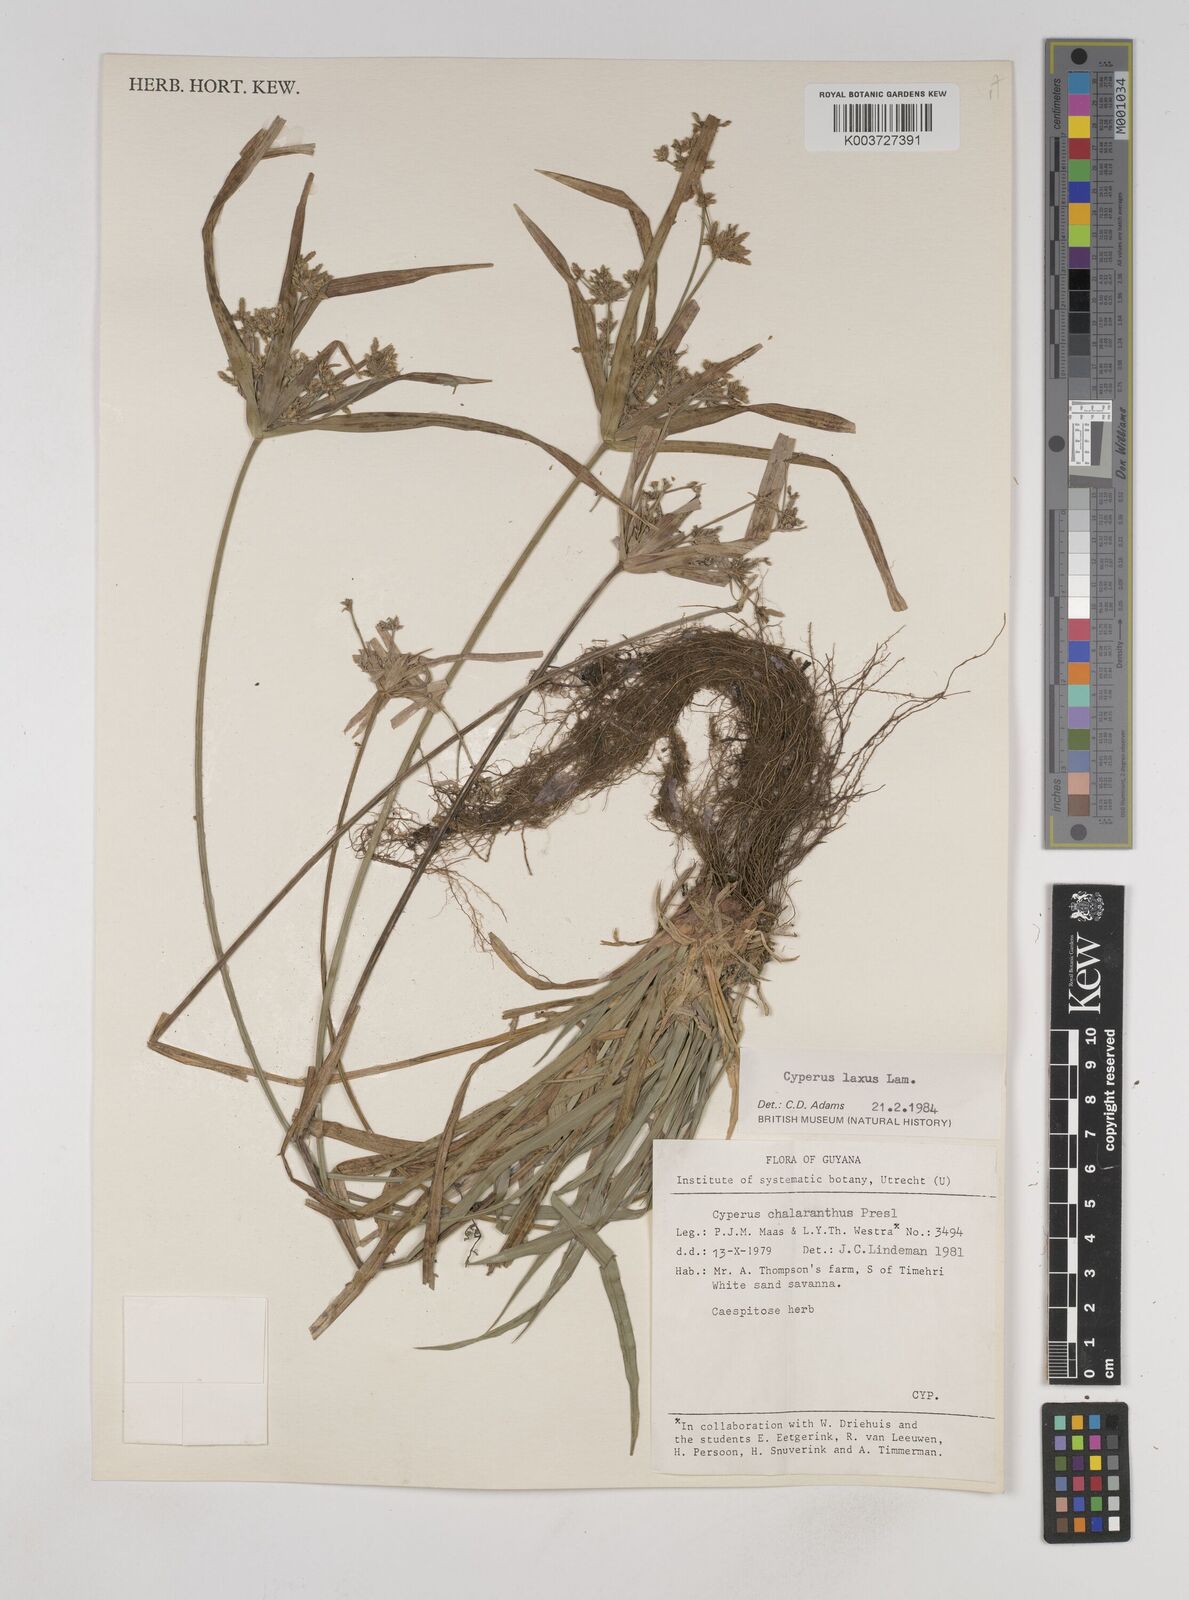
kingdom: Plantae
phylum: Tracheophyta
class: Liliopsida
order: Poales
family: Cyperaceae
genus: Cyperus
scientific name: Cyperus chalaranthus
